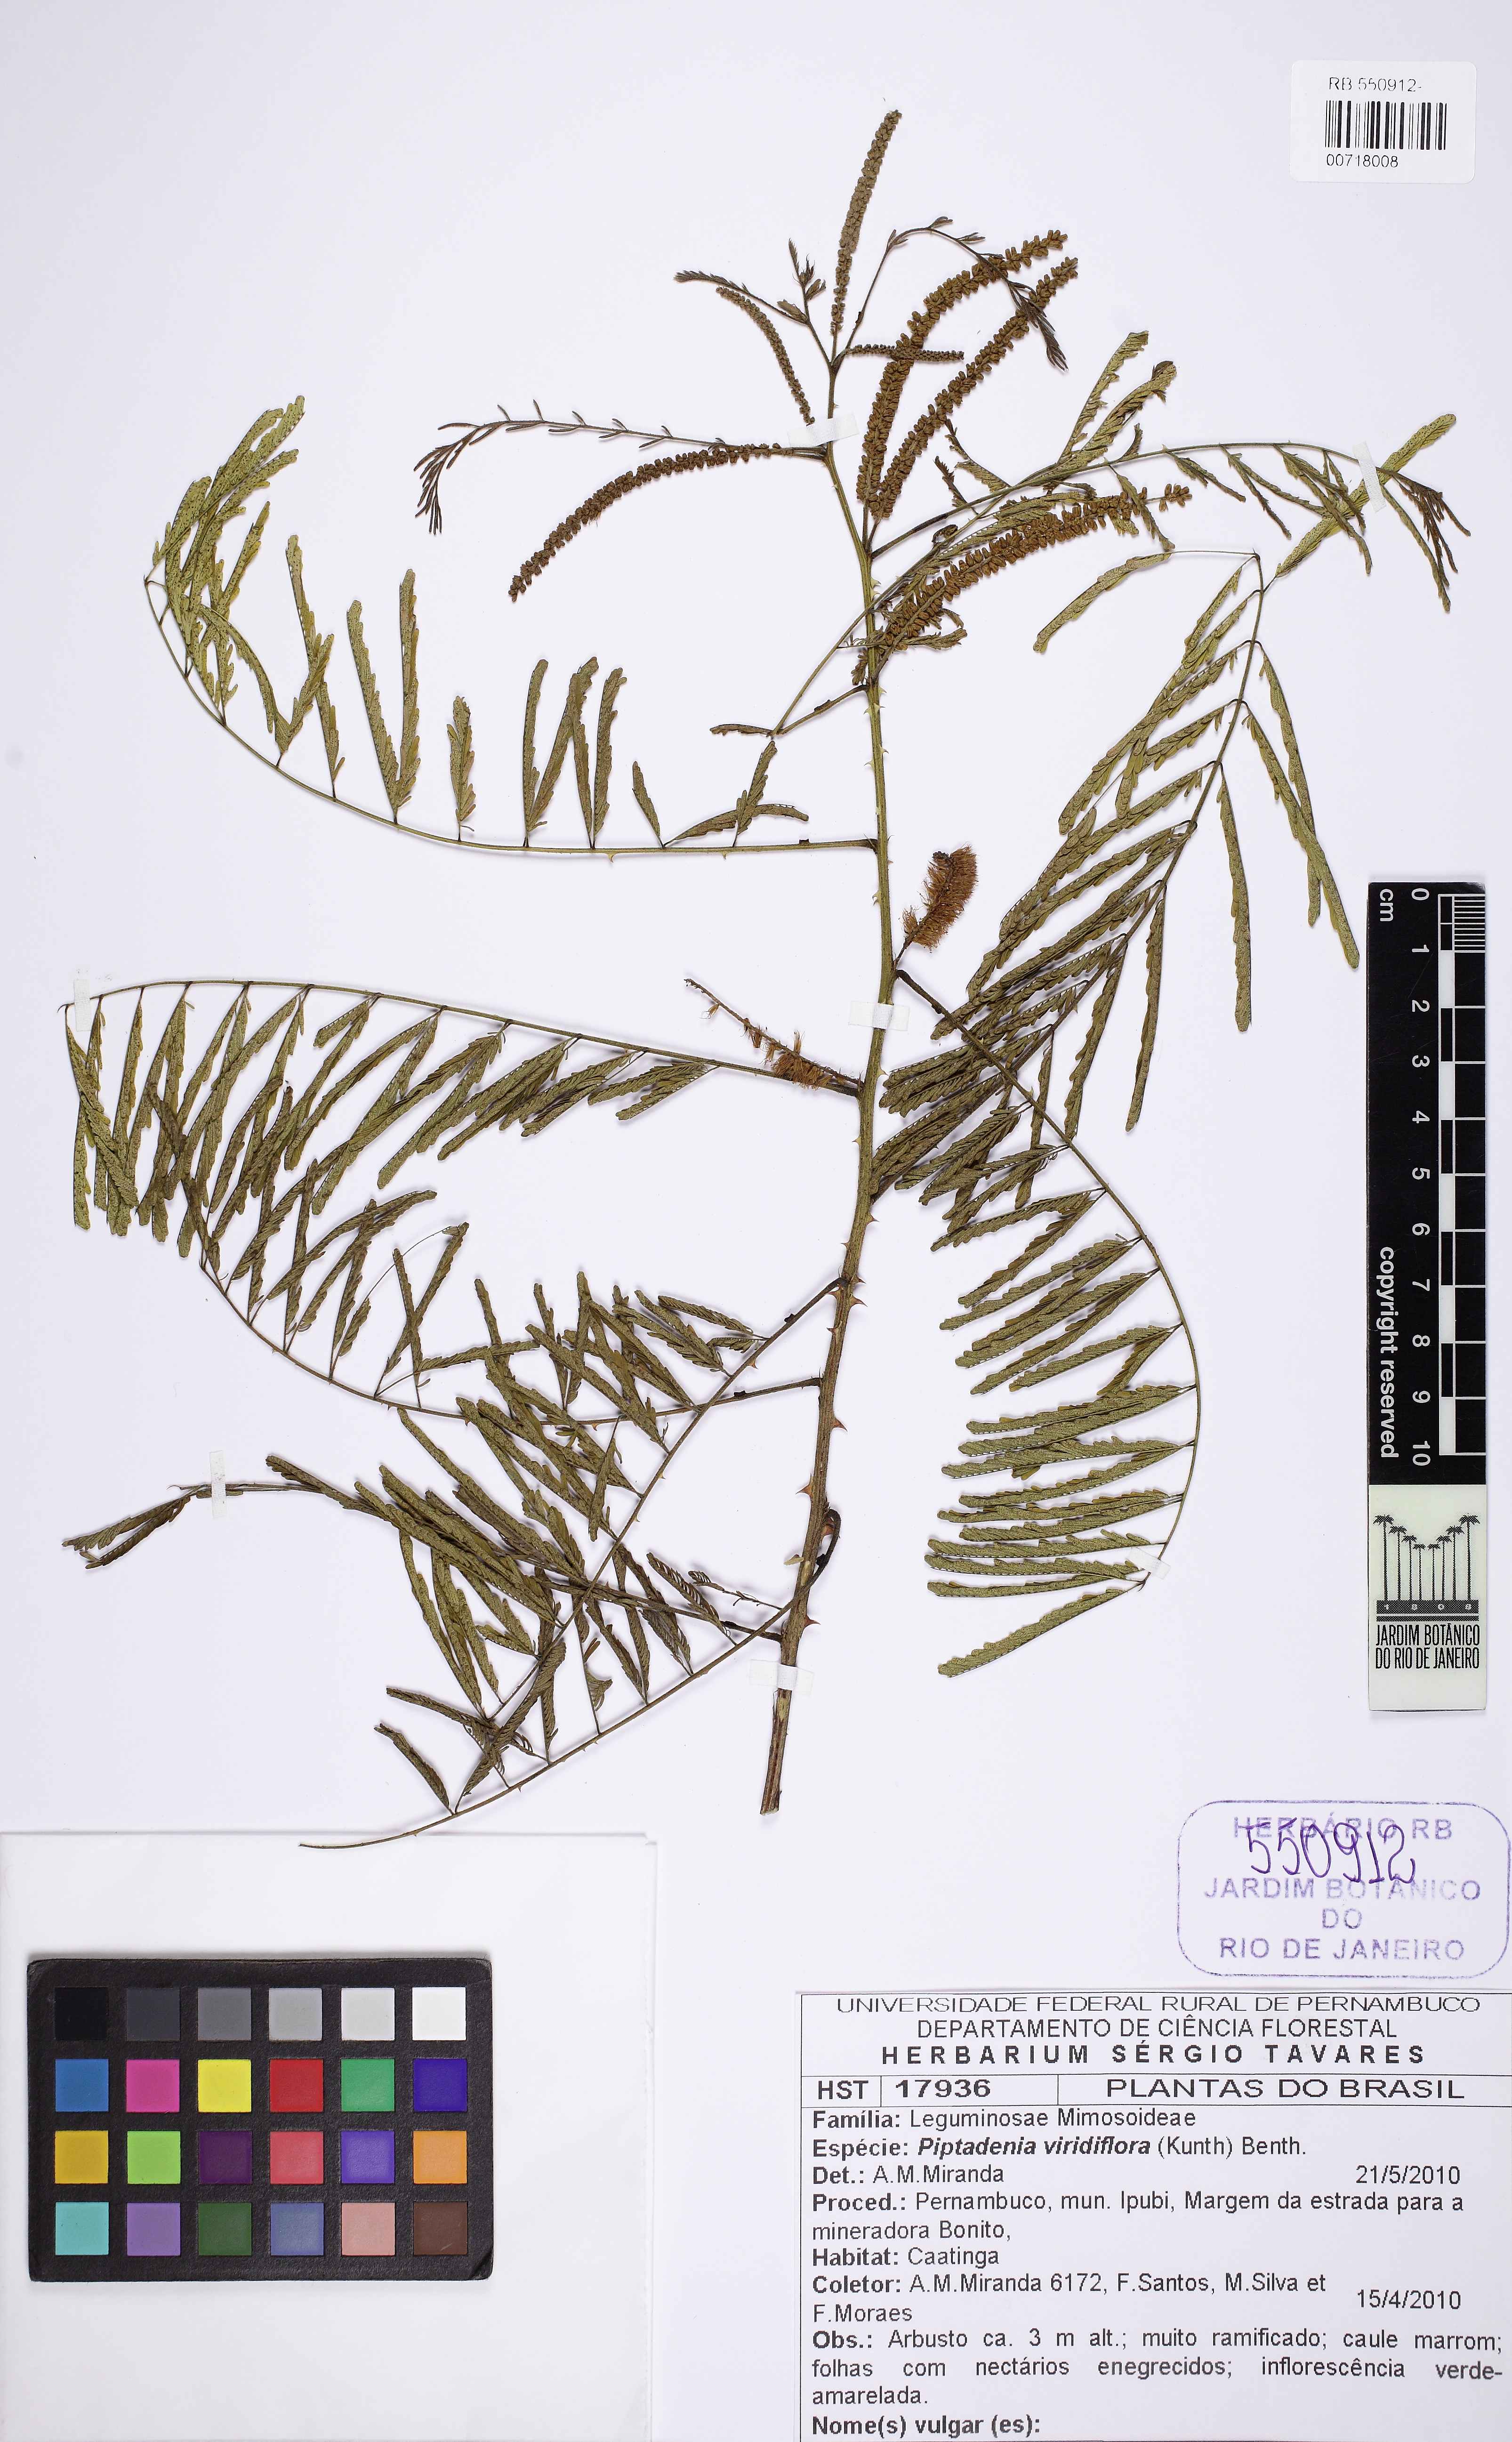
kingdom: Plantae
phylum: Tracheophyta
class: Magnoliopsida
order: Fabales
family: Fabaceae
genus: Piptadenia
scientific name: Piptadenia retusa
